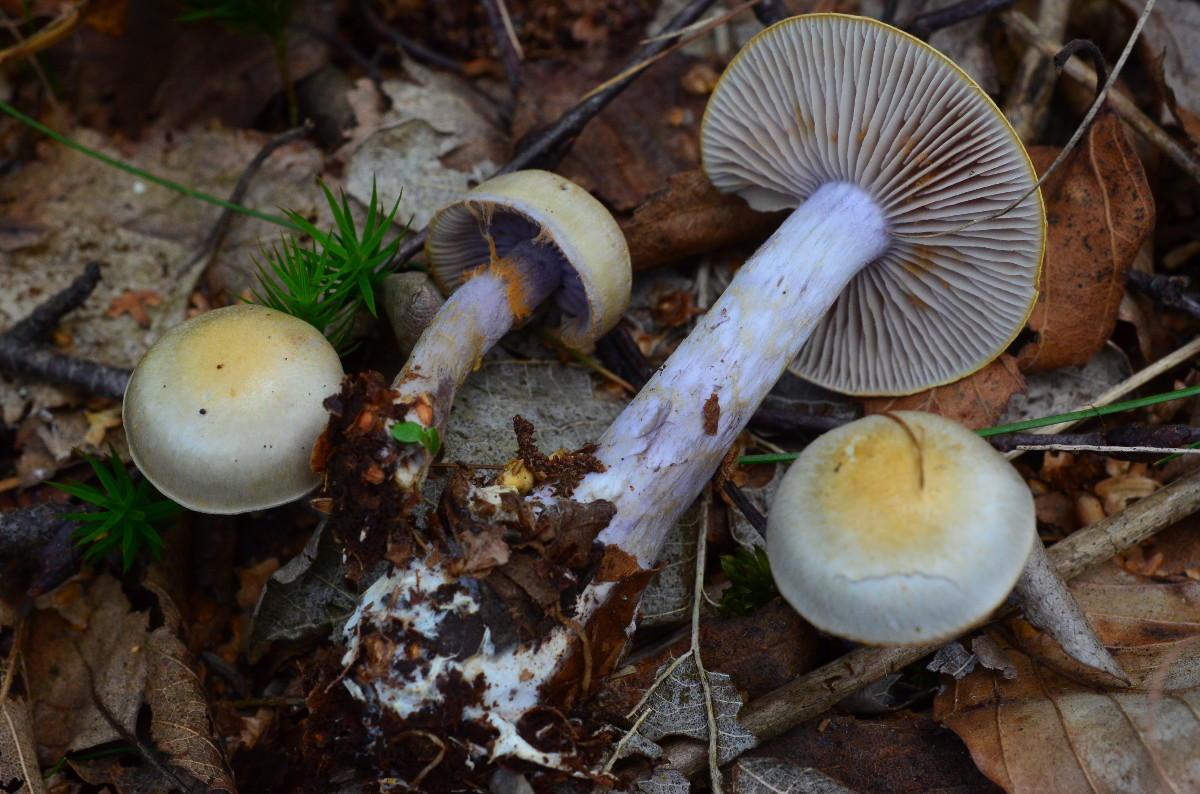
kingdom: Fungi
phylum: Basidiomycota
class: Agaricomycetes
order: Agaricales
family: Cortinariaceae
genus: Cortinarius
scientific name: Cortinarius betulinus
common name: akvamarin-slørhat
